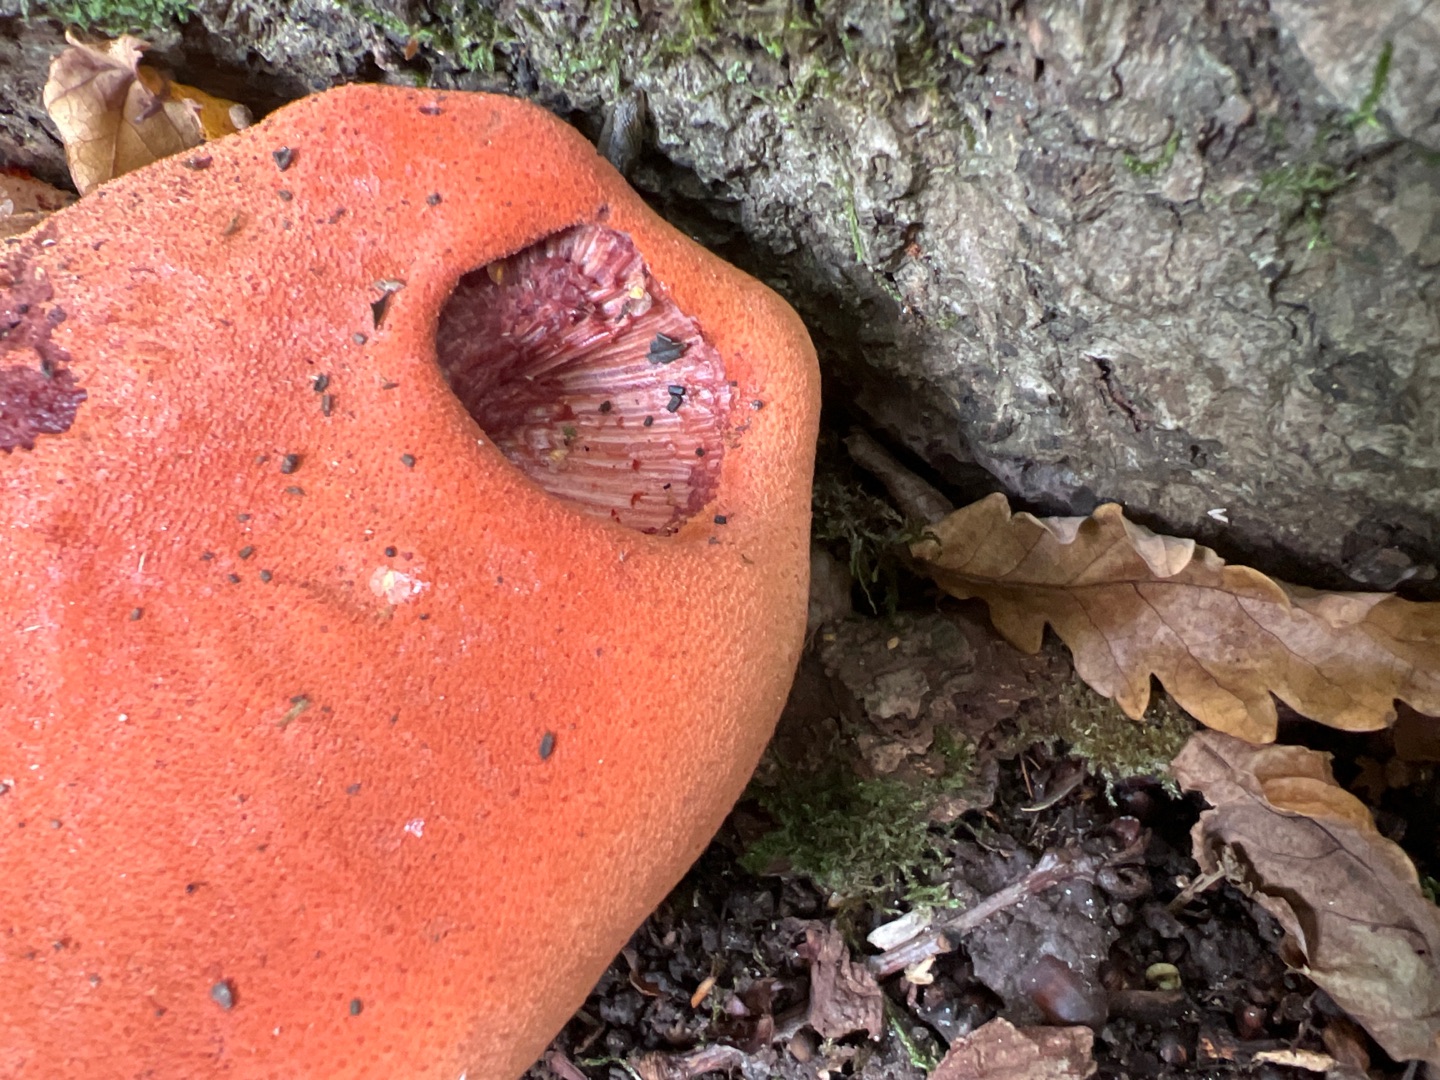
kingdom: Fungi
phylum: Basidiomycota
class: Agaricomycetes
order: Agaricales
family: Fistulinaceae
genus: Fistulina
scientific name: Fistulina hepatica
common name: Oksetunge
